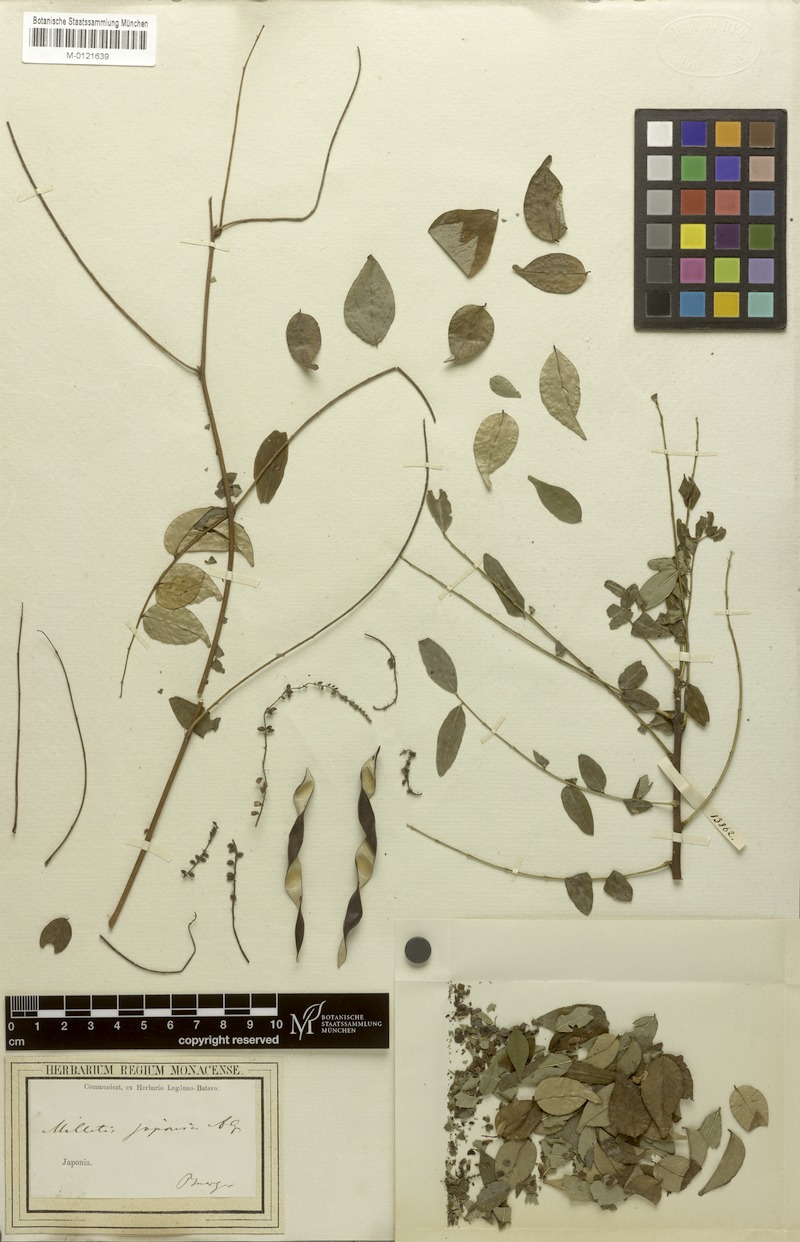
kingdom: Plantae
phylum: Tracheophyta
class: Magnoliopsida
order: Fabales
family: Fabaceae
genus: Wisteriopsis
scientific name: Wisteriopsis japonica
